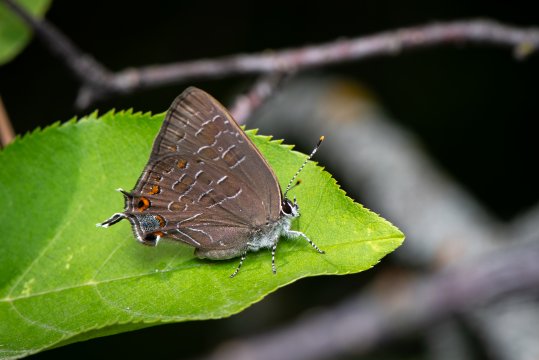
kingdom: Animalia
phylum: Arthropoda
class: Insecta
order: Lepidoptera
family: Lycaenidae
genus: Satyrium
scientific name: Satyrium liparops
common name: Striped Hairstreak
